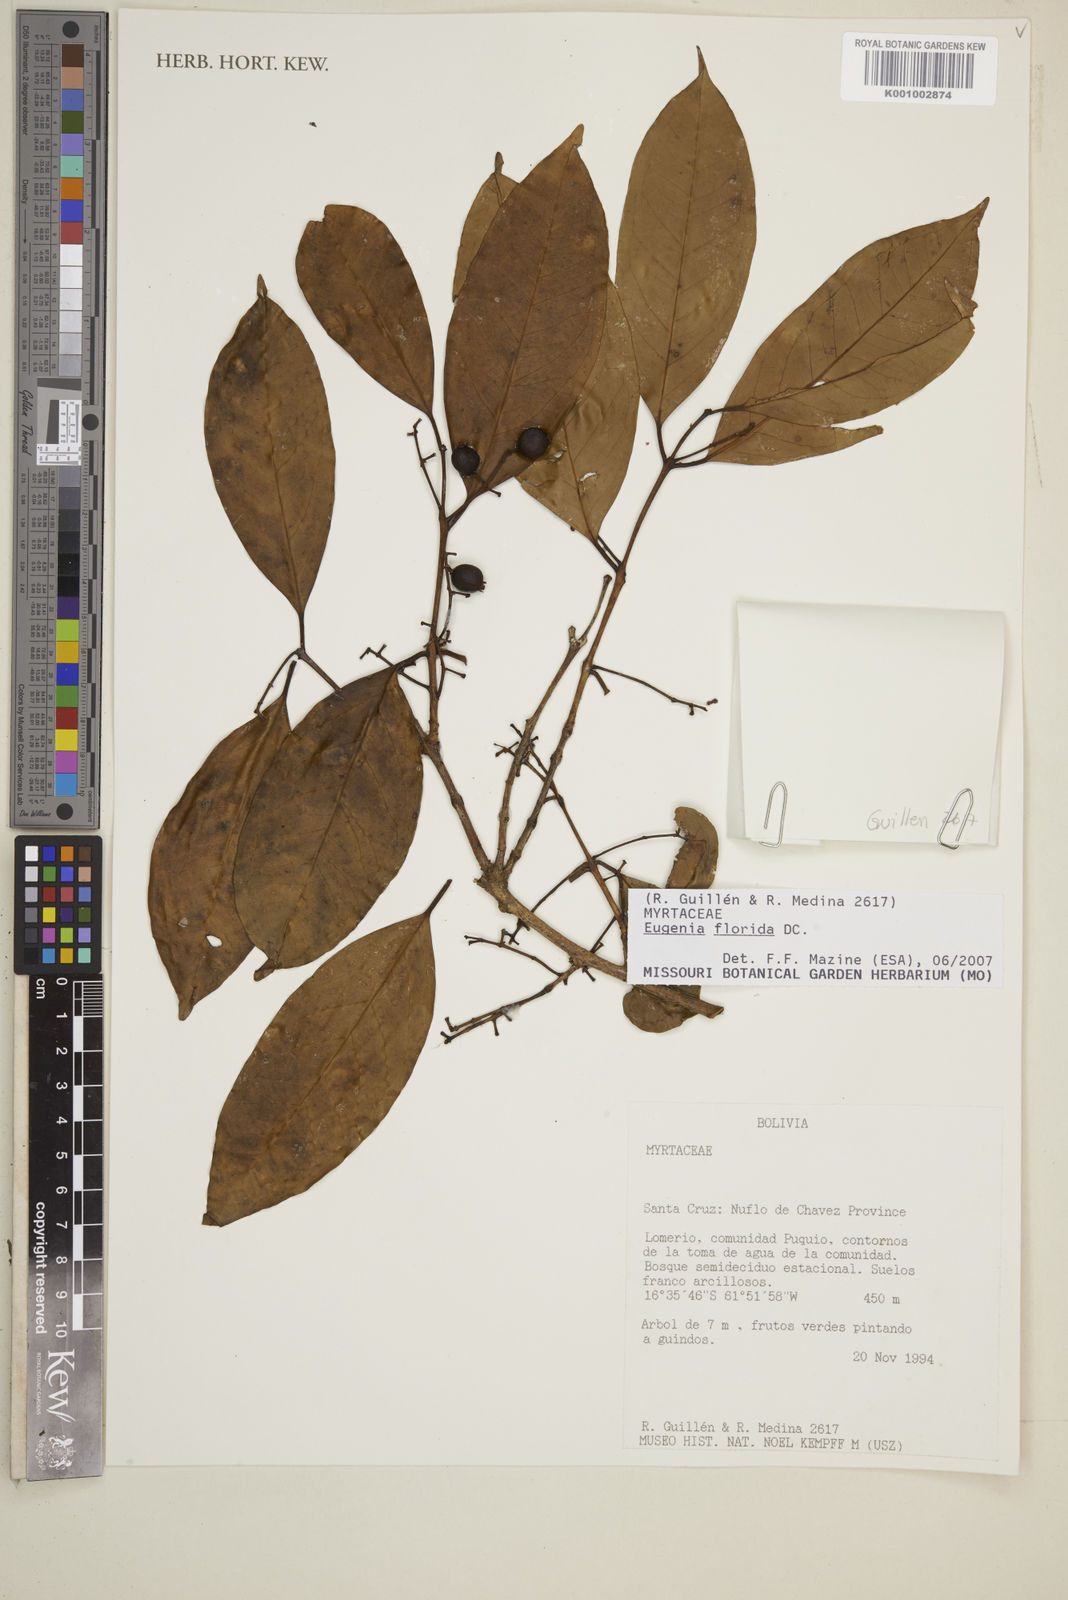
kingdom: Plantae
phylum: Tracheophyta
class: Magnoliopsida
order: Myrtales
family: Myrtaceae
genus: Eugenia
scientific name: Eugenia florida
